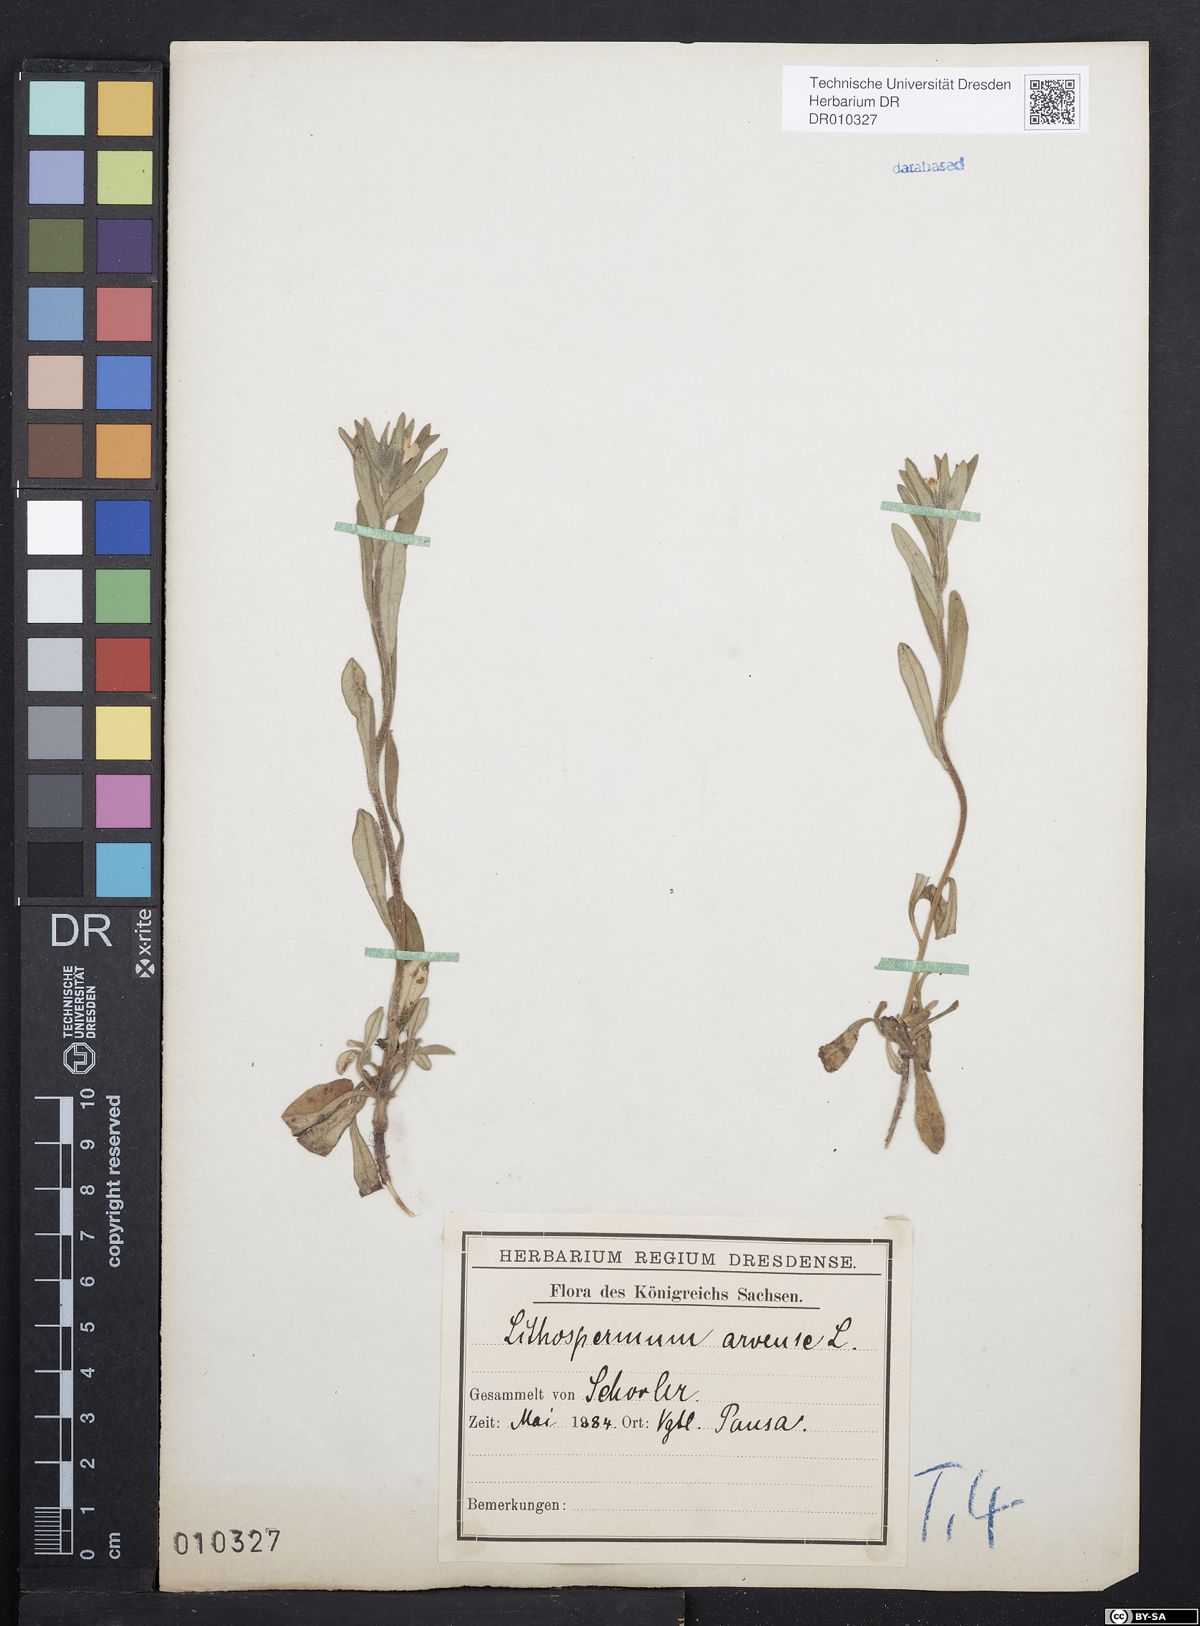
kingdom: Plantae
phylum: Tracheophyta
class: Magnoliopsida
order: Boraginales
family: Boraginaceae
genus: Buglossoides
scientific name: Buglossoides arvensis
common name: Corn gromwell
